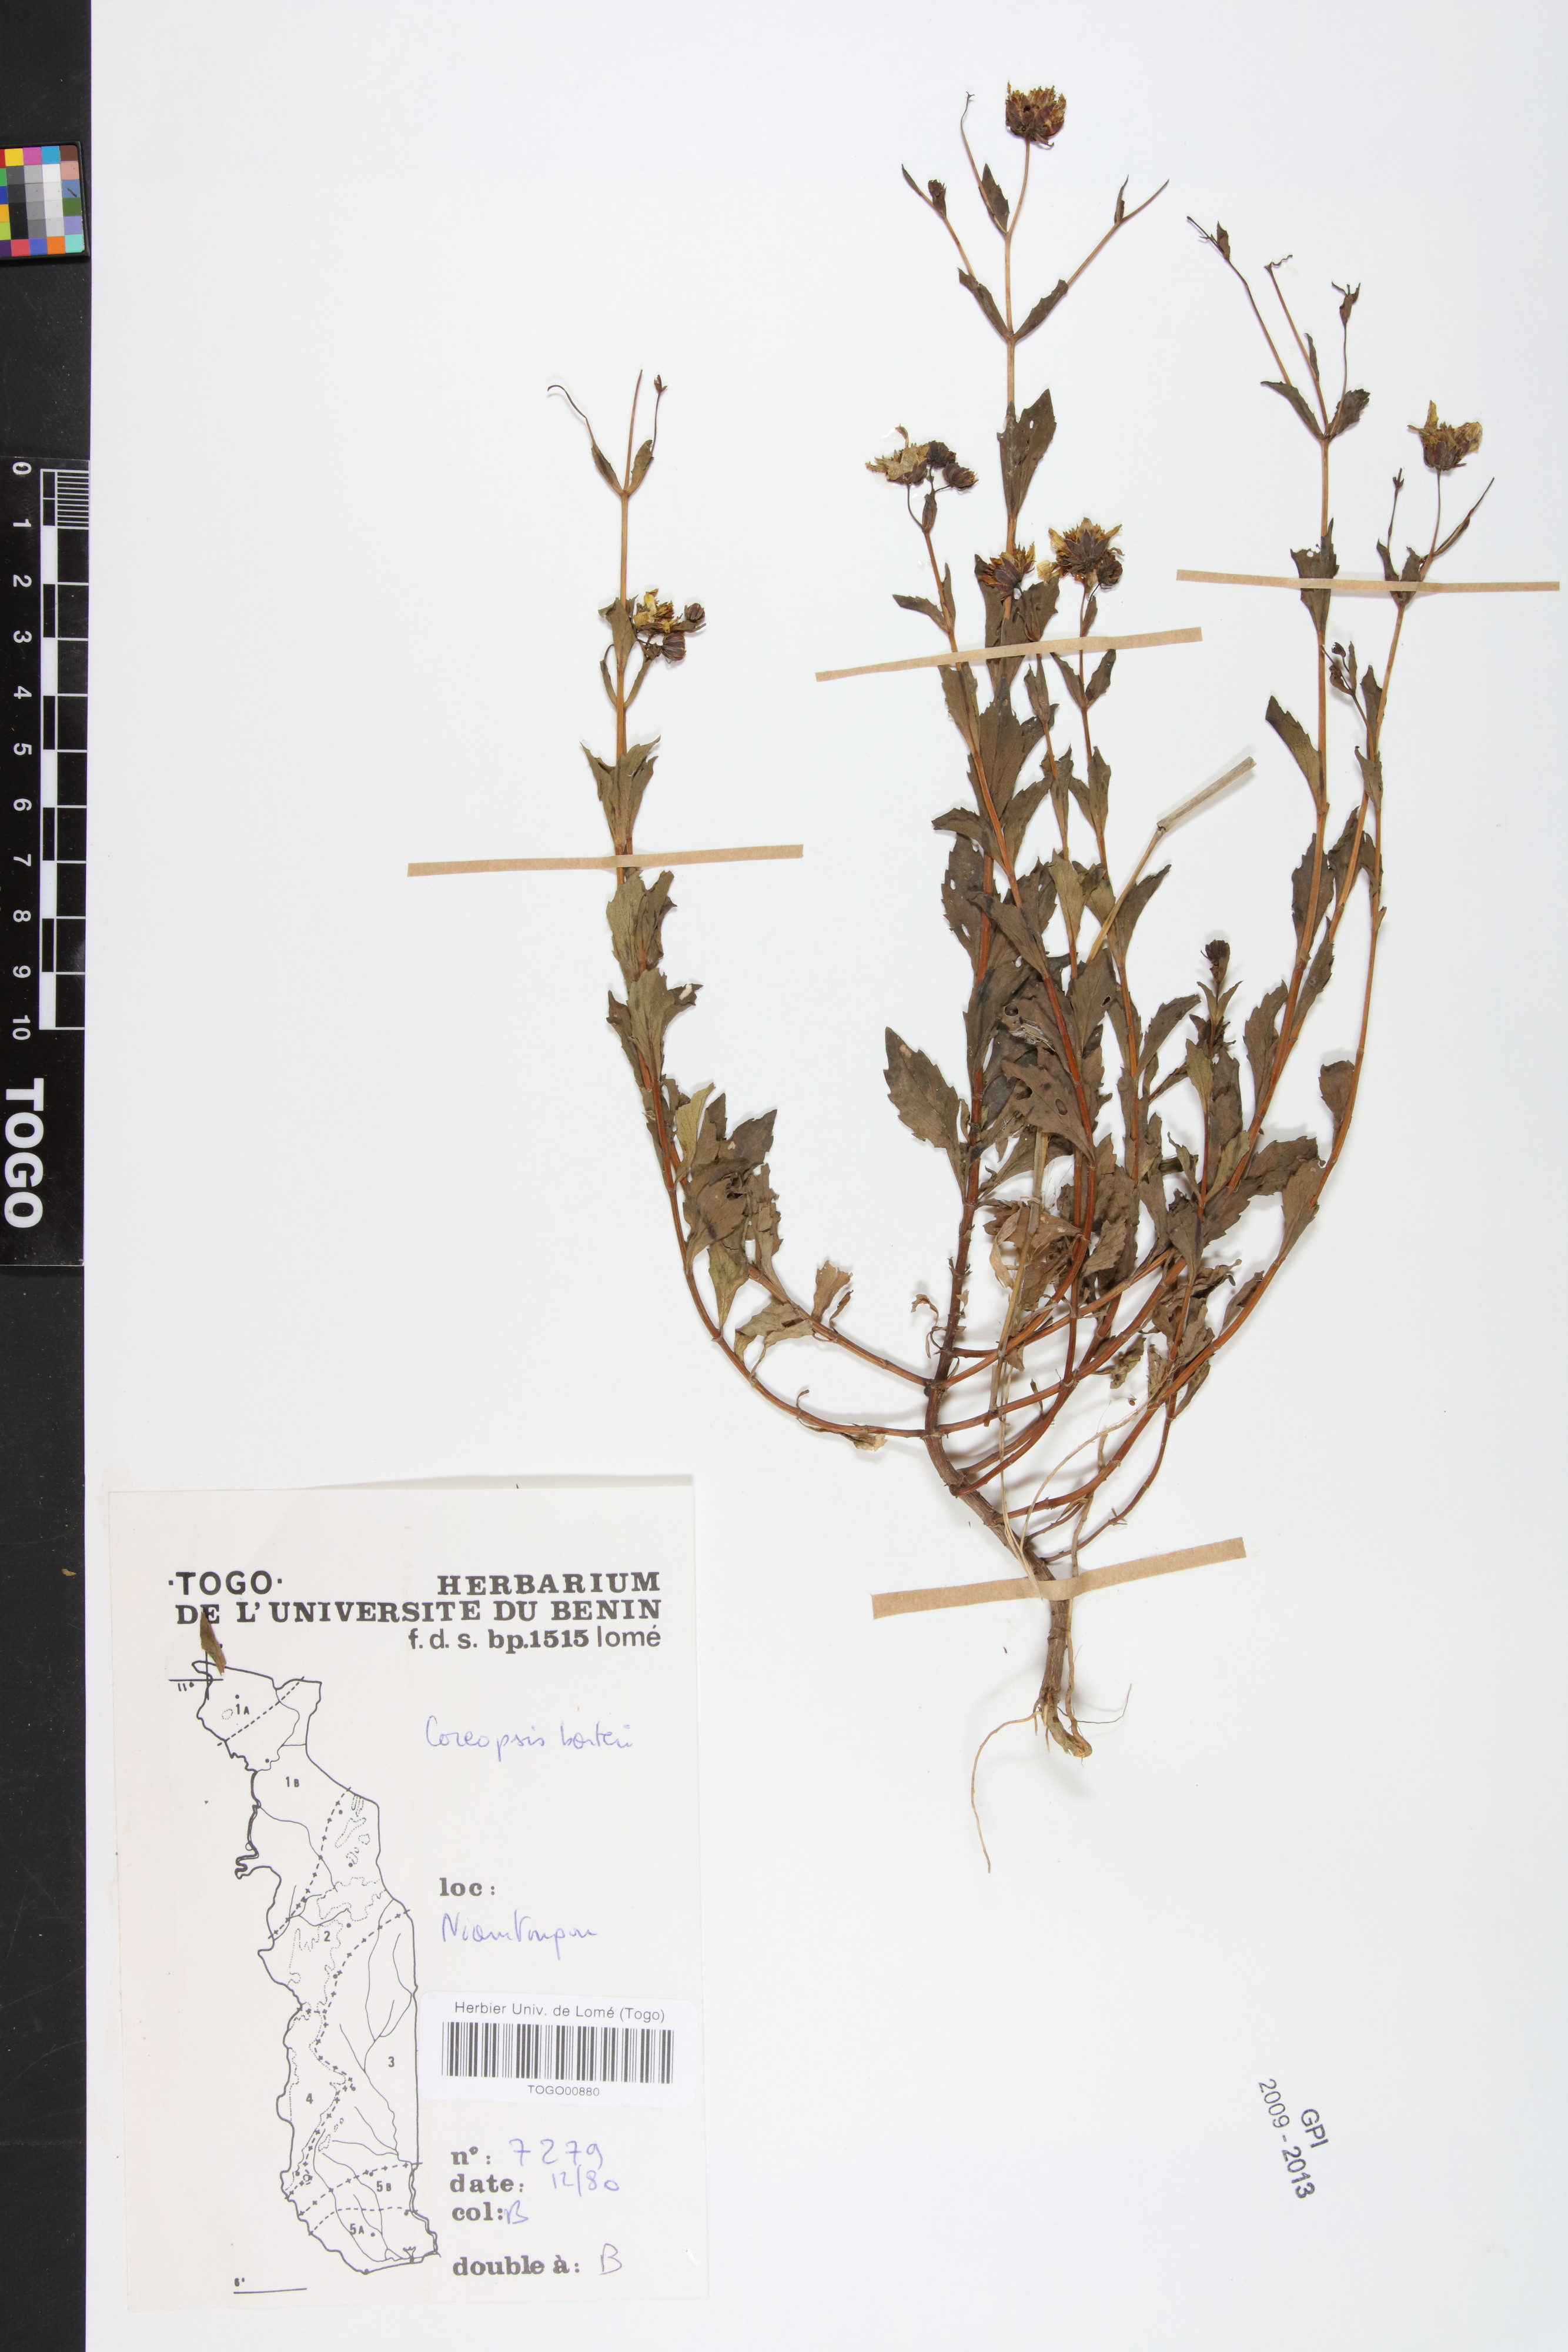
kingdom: Plantae
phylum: Tracheophyta
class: Magnoliopsida
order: Asterales
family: Asteraceae
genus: Bidens
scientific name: Bidens barteri
